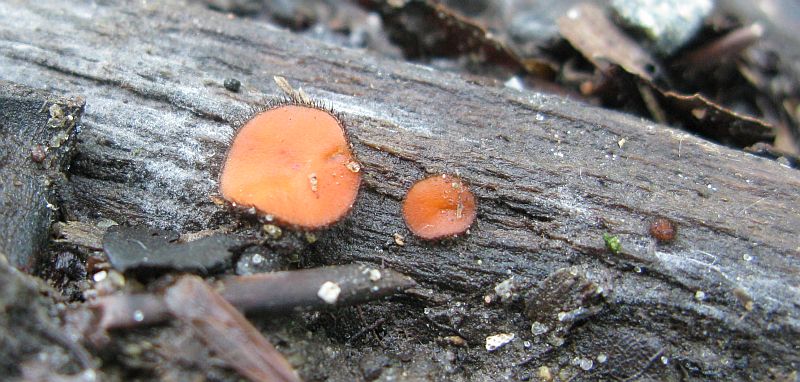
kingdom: Fungi
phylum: Ascomycota
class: Pezizomycetes
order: Pezizales
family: Pyronemataceae
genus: Scutellinia
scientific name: Scutellinia scutellata
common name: frynset skjoldbæger
